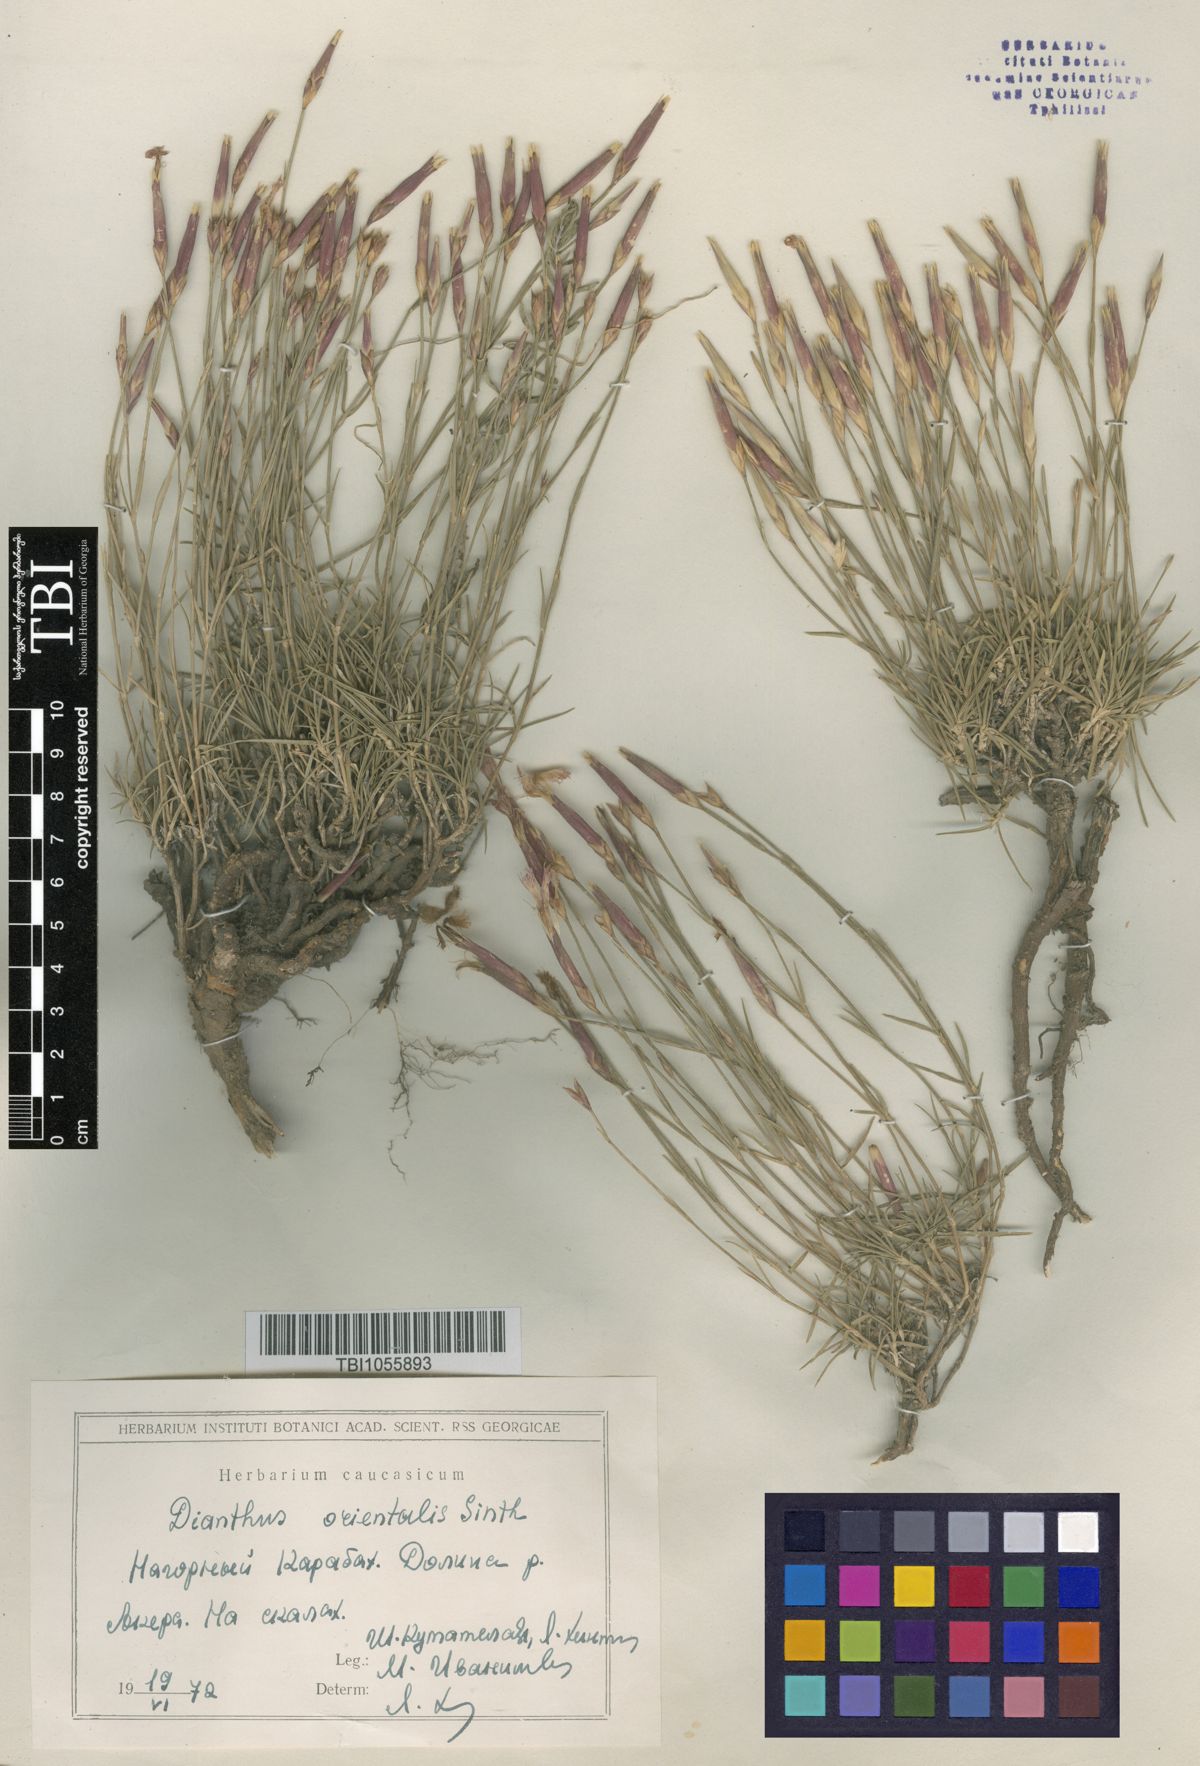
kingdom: Plantae
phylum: Tracheophyta
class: Magnoliopsida
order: Caryophyllales
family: Caryophyllaceae
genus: Dianthus
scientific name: Dianthus orientalis
